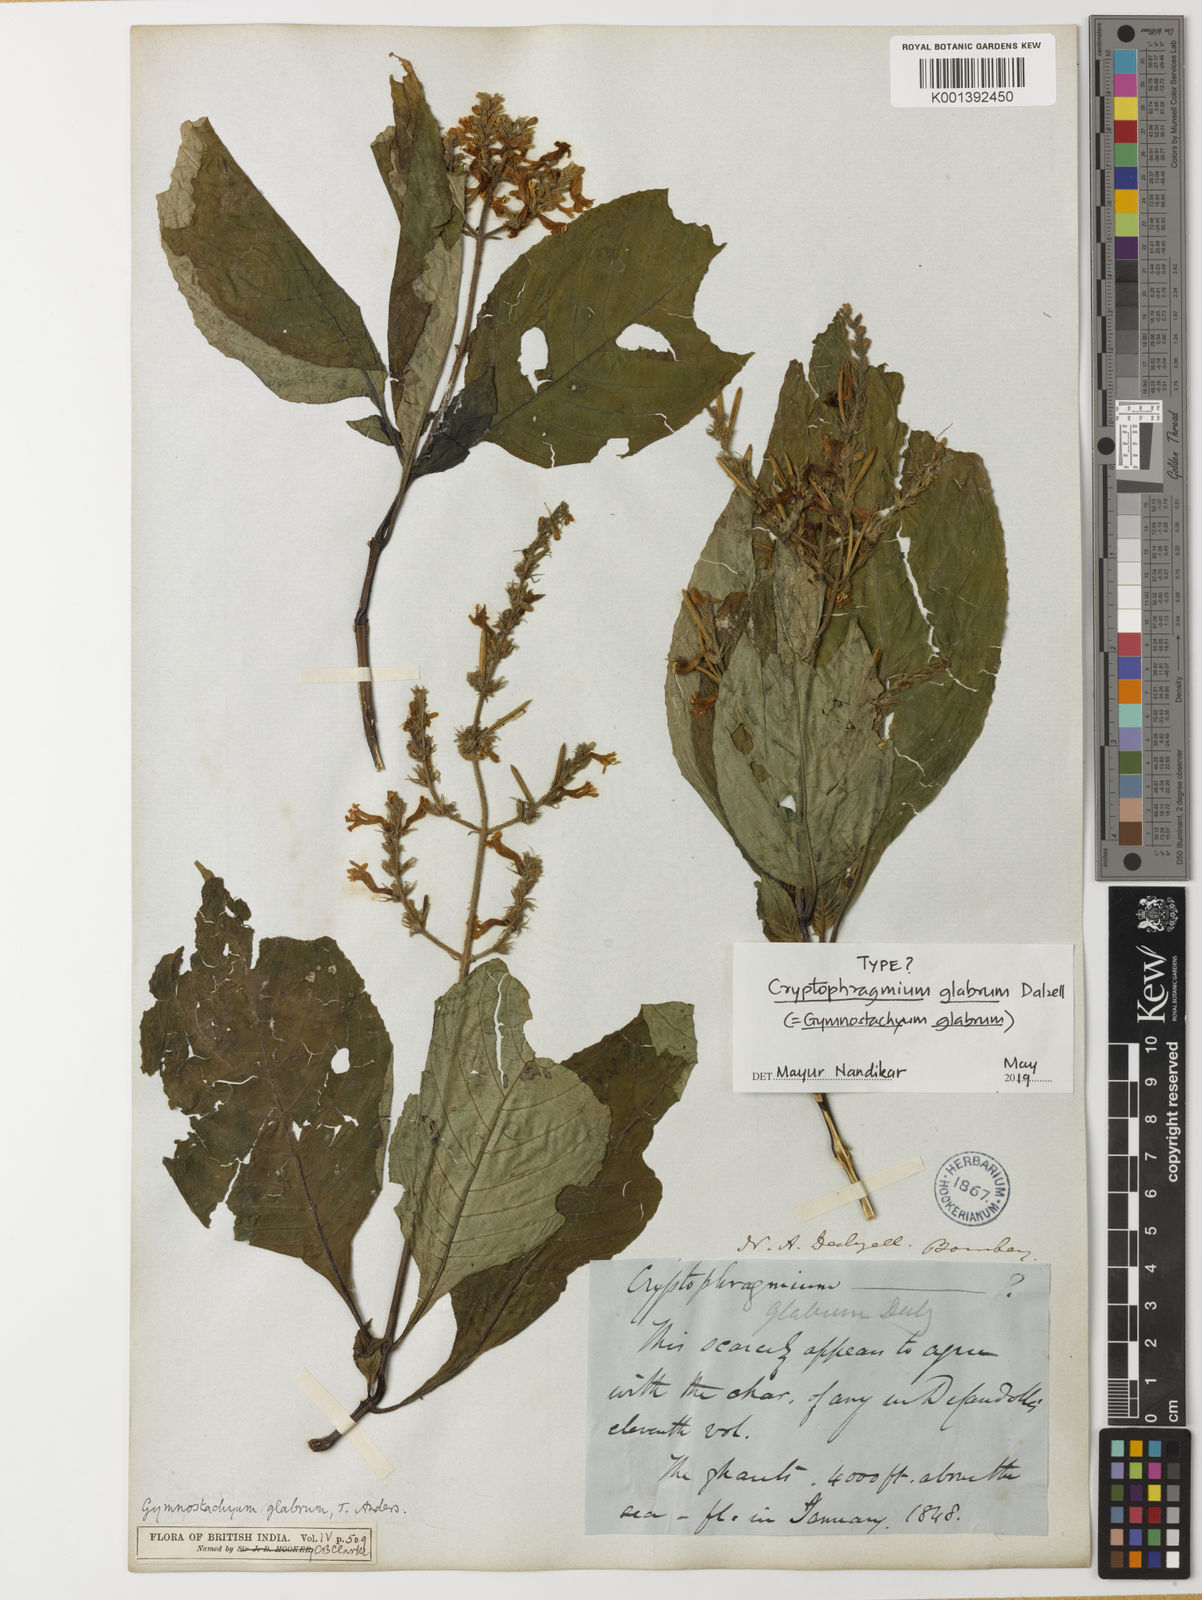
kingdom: Plantae
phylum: Tracheophyta
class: Magnoliopsida
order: Lamiales
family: Acanthaceae
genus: Gymnostachyum
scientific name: Gymnostachyum glabrum
